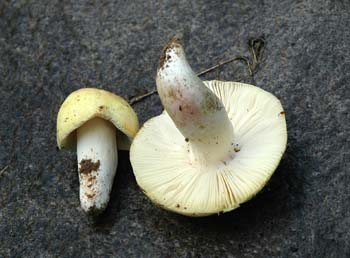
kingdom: Fungi
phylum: Basidiomycota
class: Agaricomycetes
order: Russulales
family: Russulaceae
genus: Russula
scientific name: Russula violeipes
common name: ferskengul skørhat
